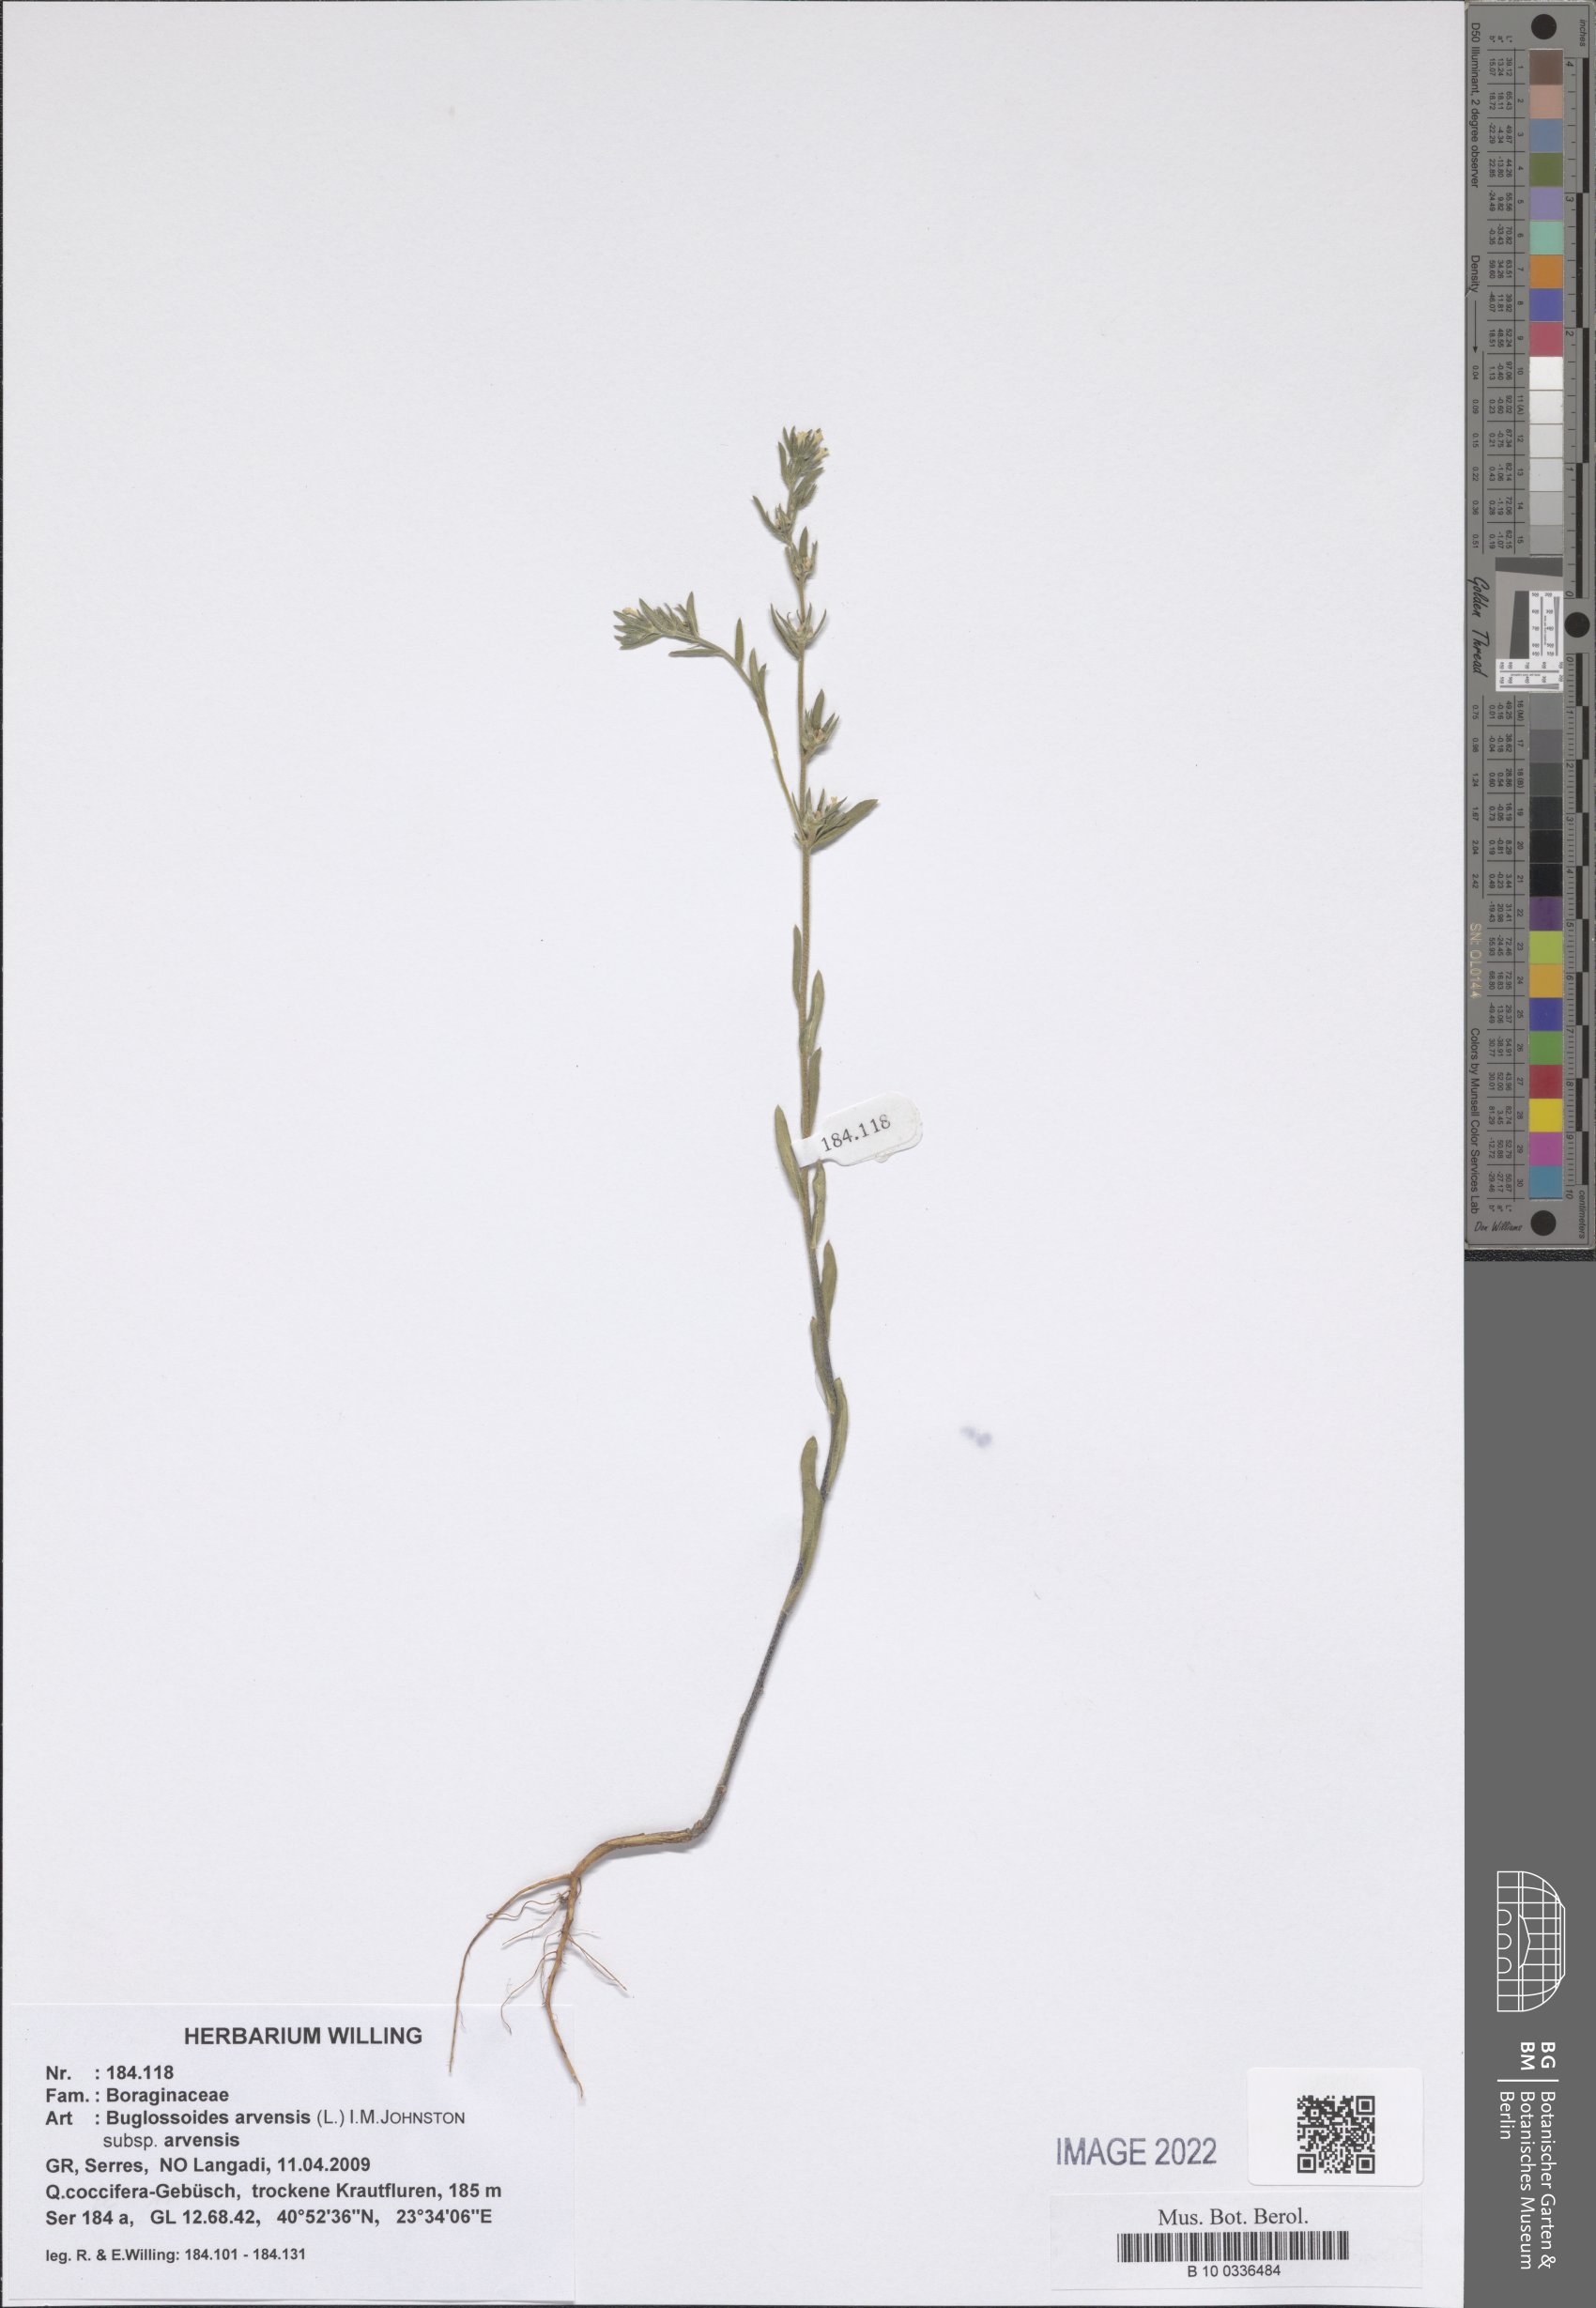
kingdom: Plantae
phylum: Tracheophyta
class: Magnoliopsida
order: Boraginales
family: Boraginaceae
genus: Buglossoides
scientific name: Buglossoides arvensis
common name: Corn gromwell
